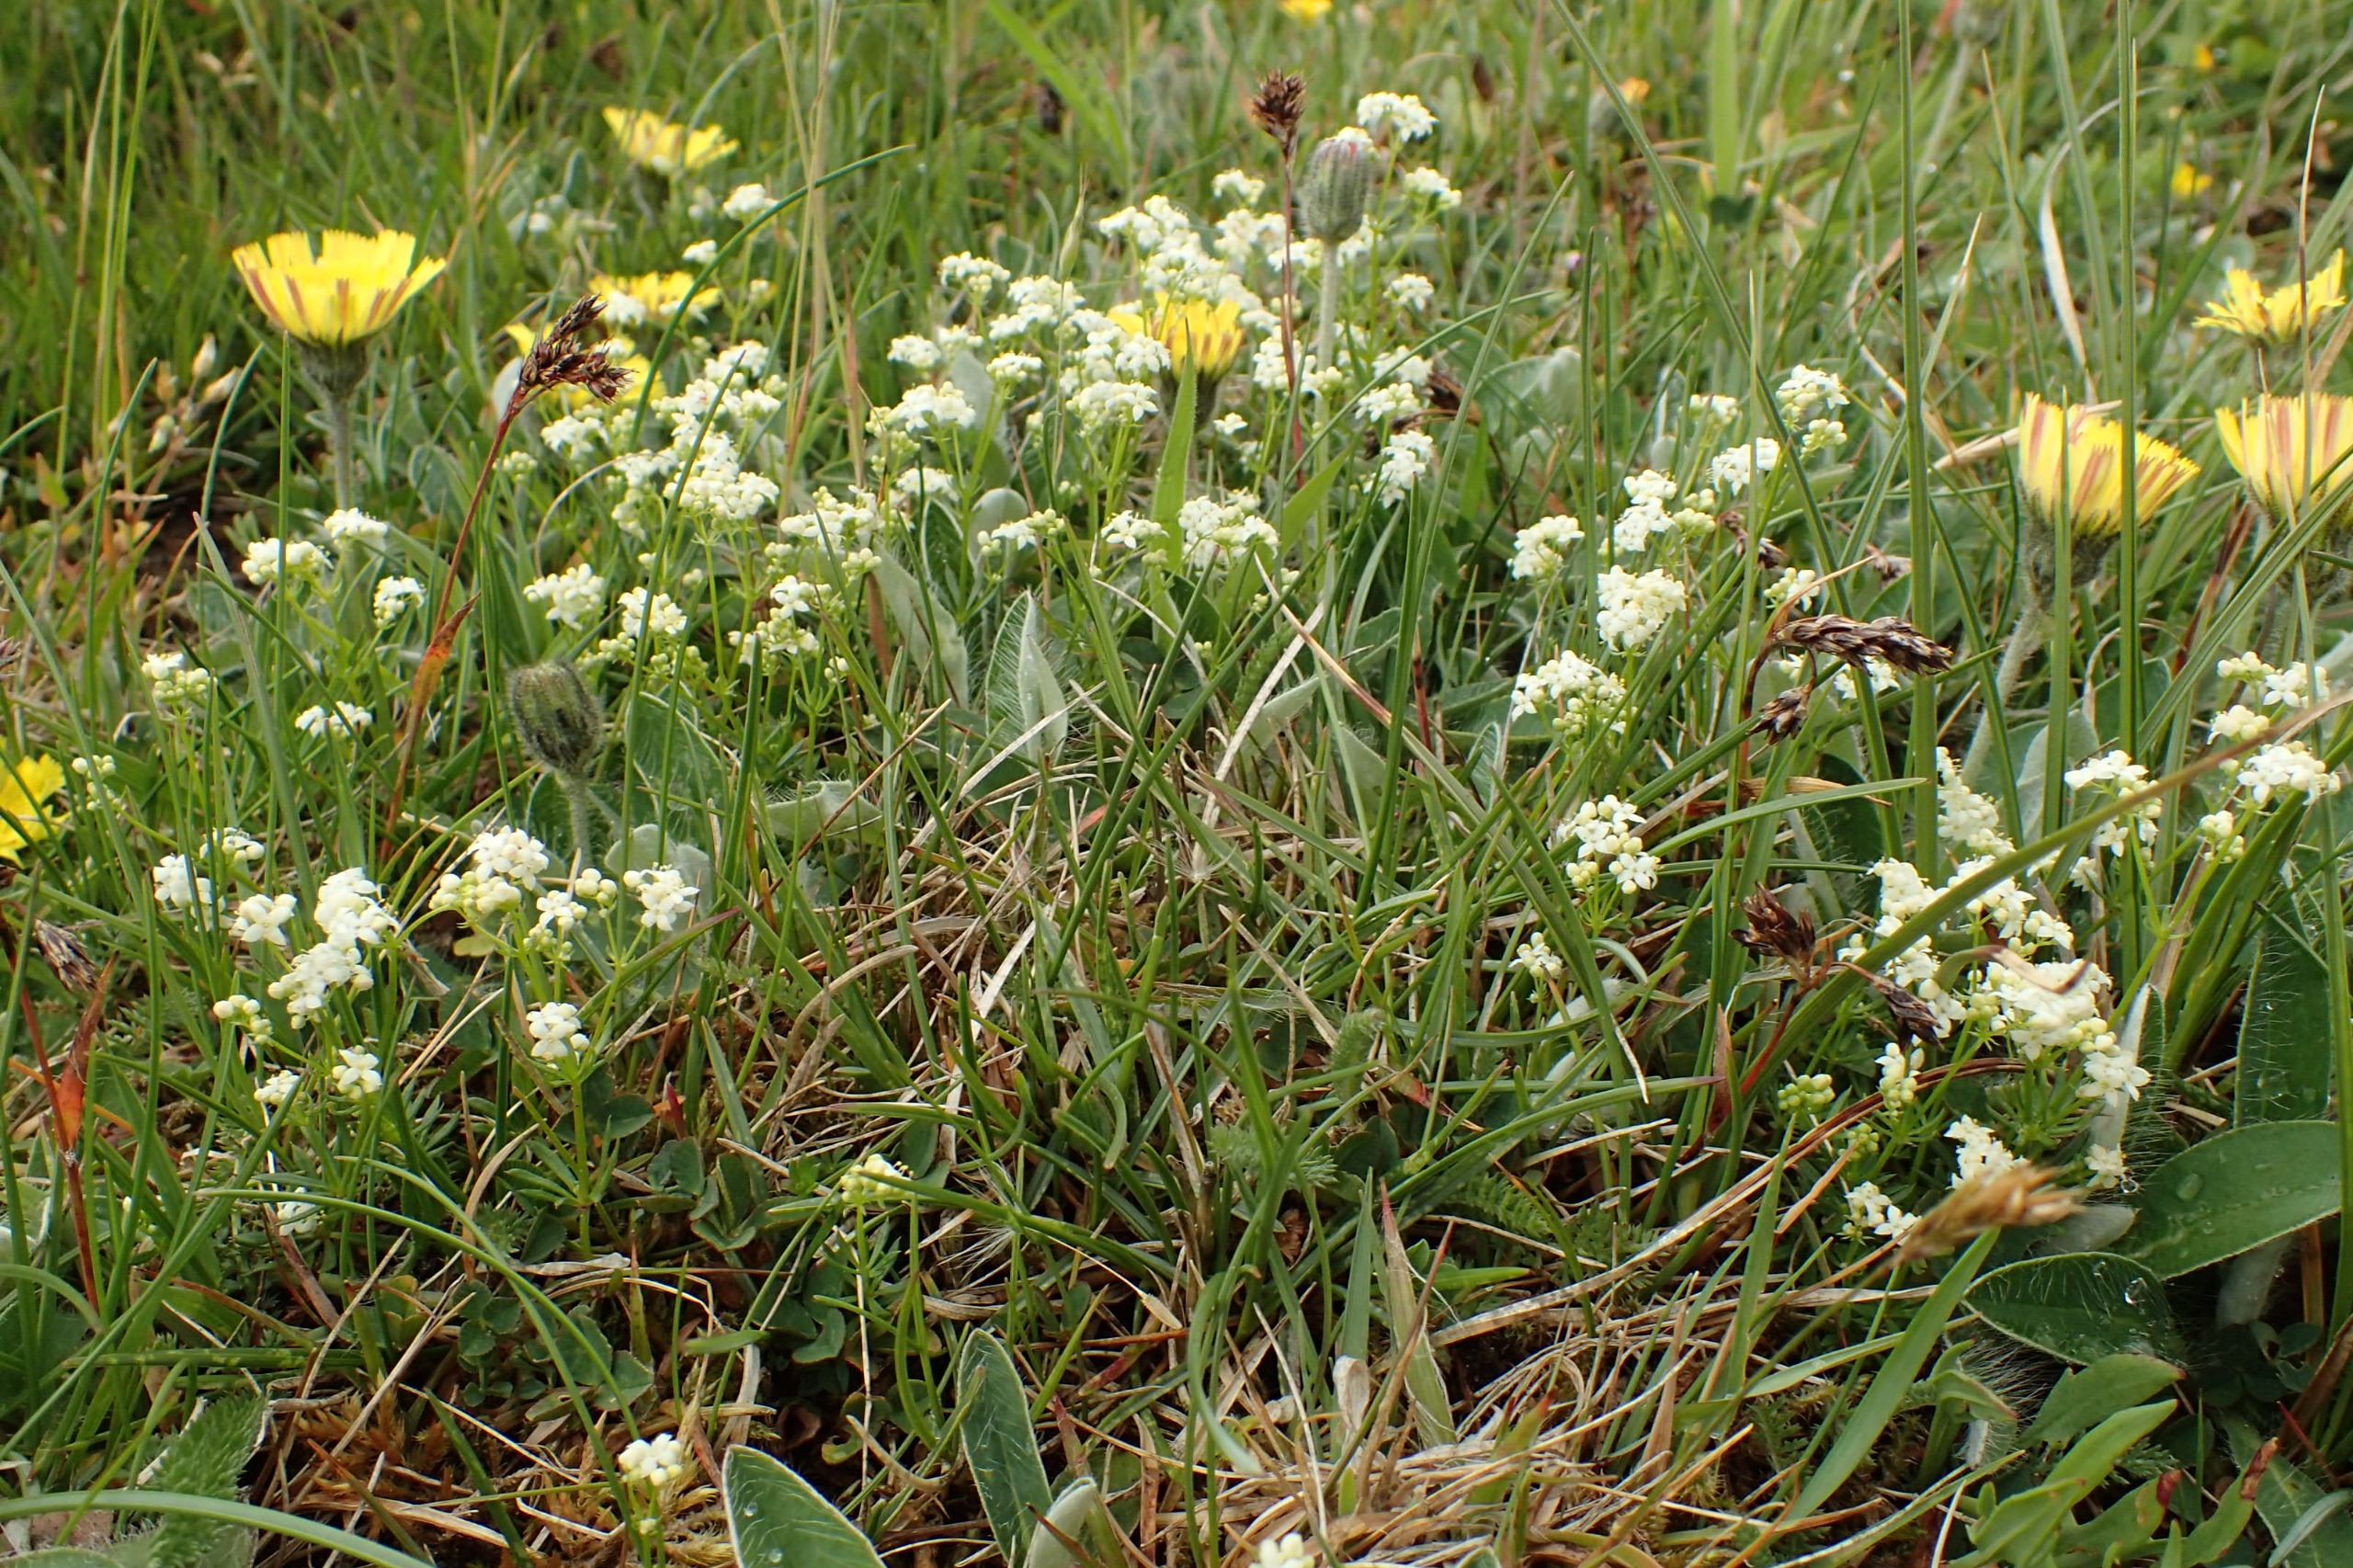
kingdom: Plantae
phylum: Tracheophyta
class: Magnoliopsida
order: Gentianales
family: Rubiaceae
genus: Galium
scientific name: Galium saxatile
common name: Lyng-snerre
